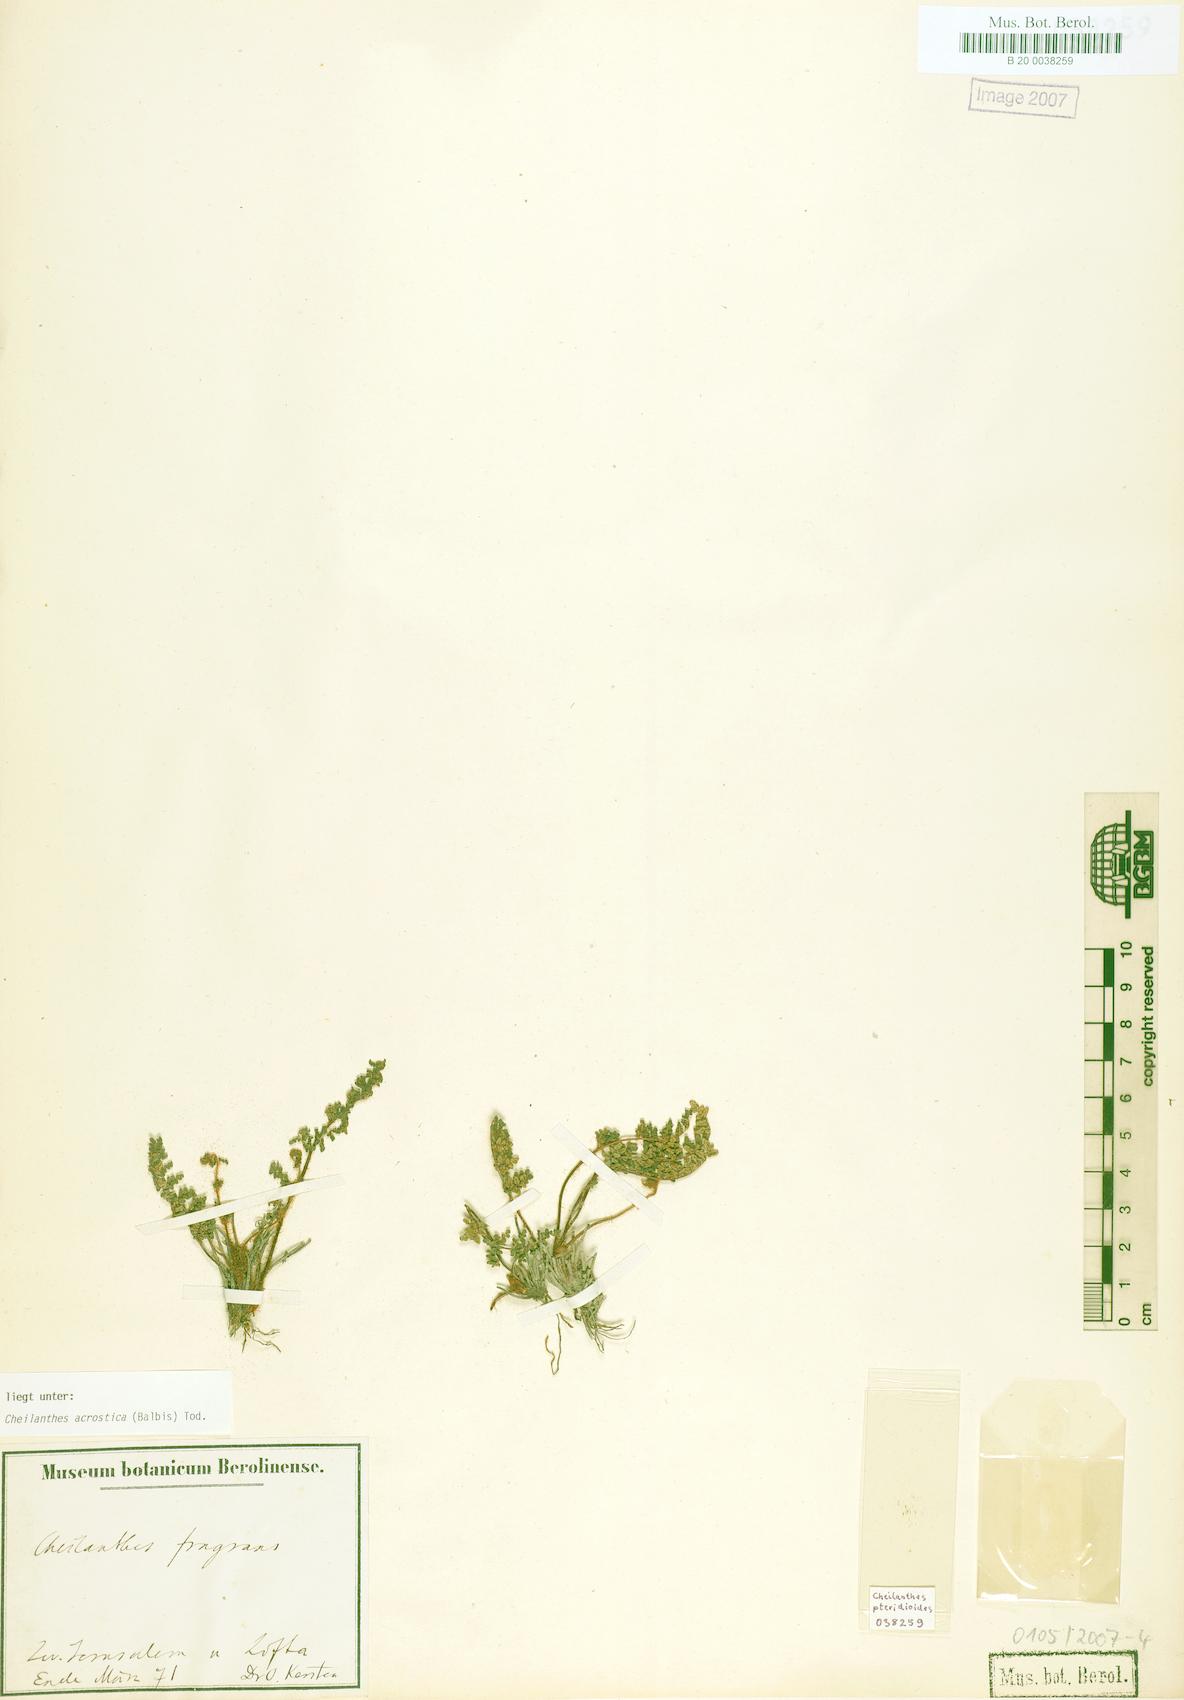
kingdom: Plantae
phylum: Tracheophyta
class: Polypodiopsida
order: Polypodiales
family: Pteridaceae
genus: Oeosporangium
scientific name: Oeosporangium pteridioides
